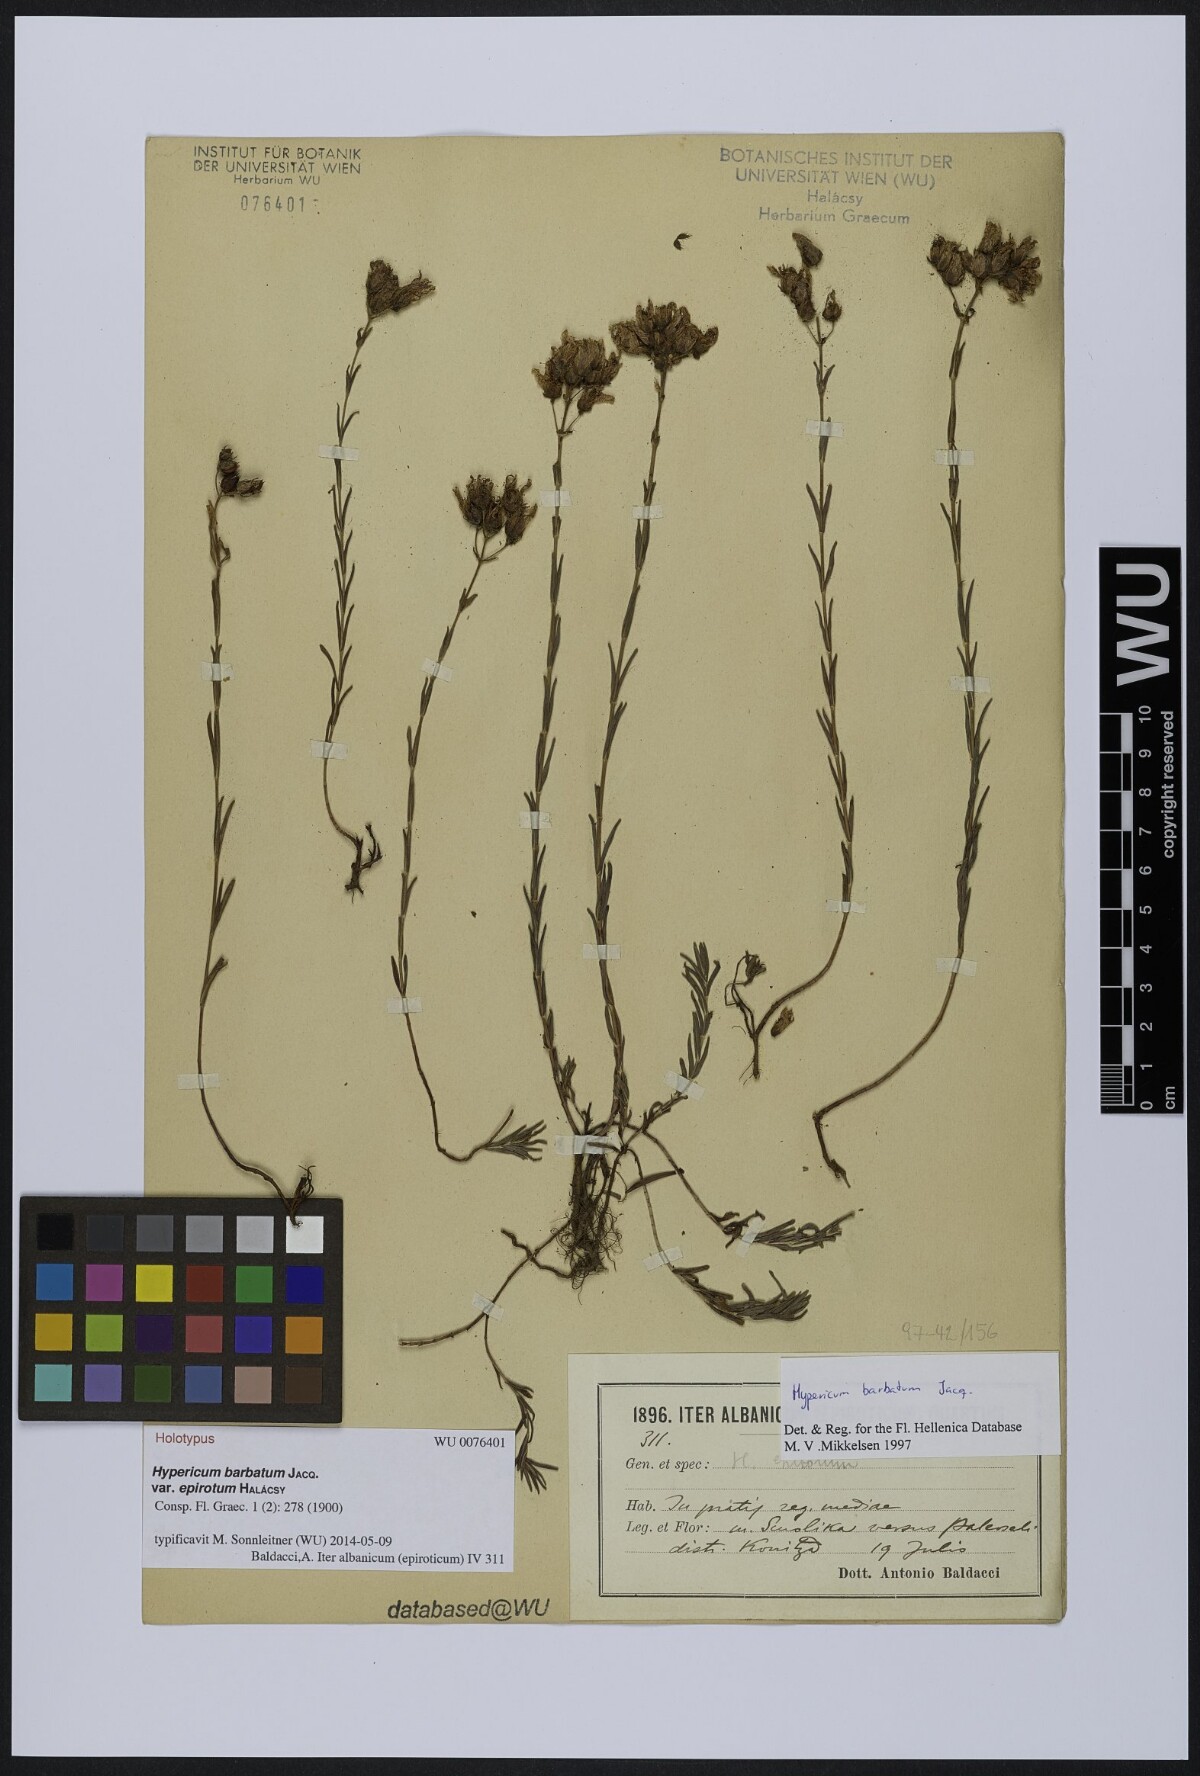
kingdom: Plantae
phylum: Tracheophyta
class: Magnoliopsida
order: Malpighiales
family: Hypericaceae
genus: Hypericum
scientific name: Hypericum barbatum
